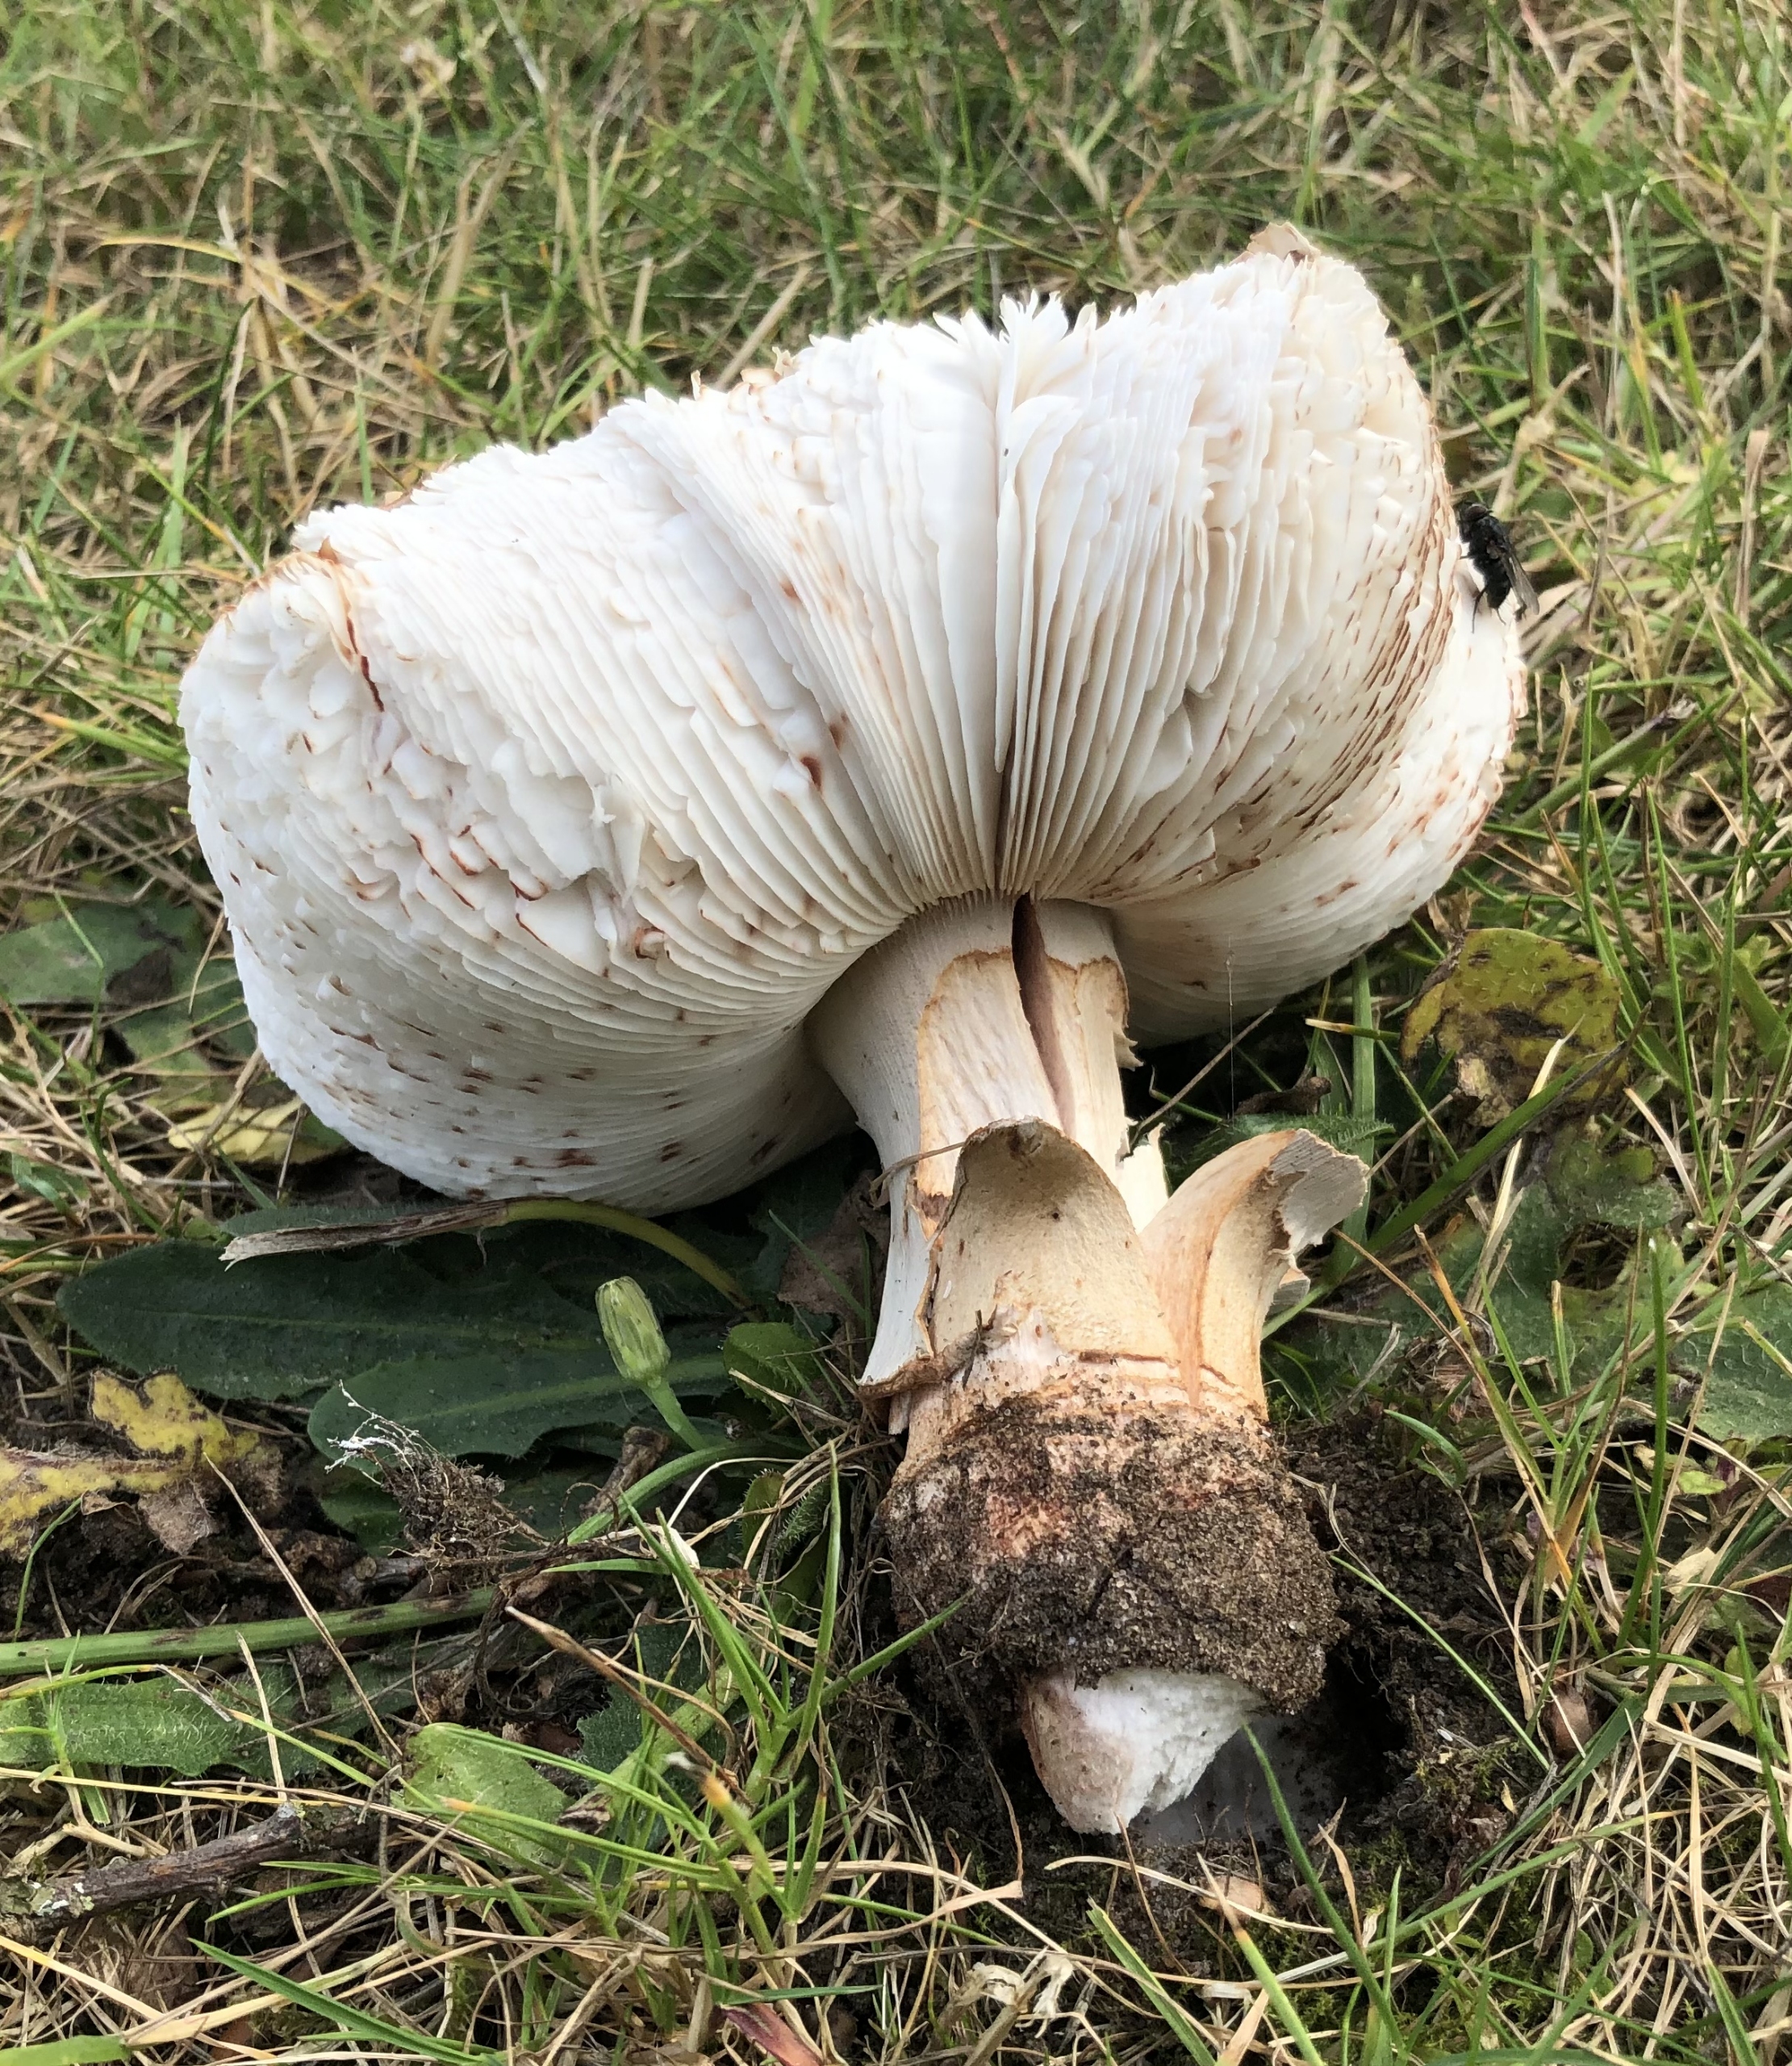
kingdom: Fungi
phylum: Basidiomycota
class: Agaricomycetes
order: Agaricales
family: Amanitaceae
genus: Amanita
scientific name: Amanita rubescens
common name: Rødmende fluesvamp
